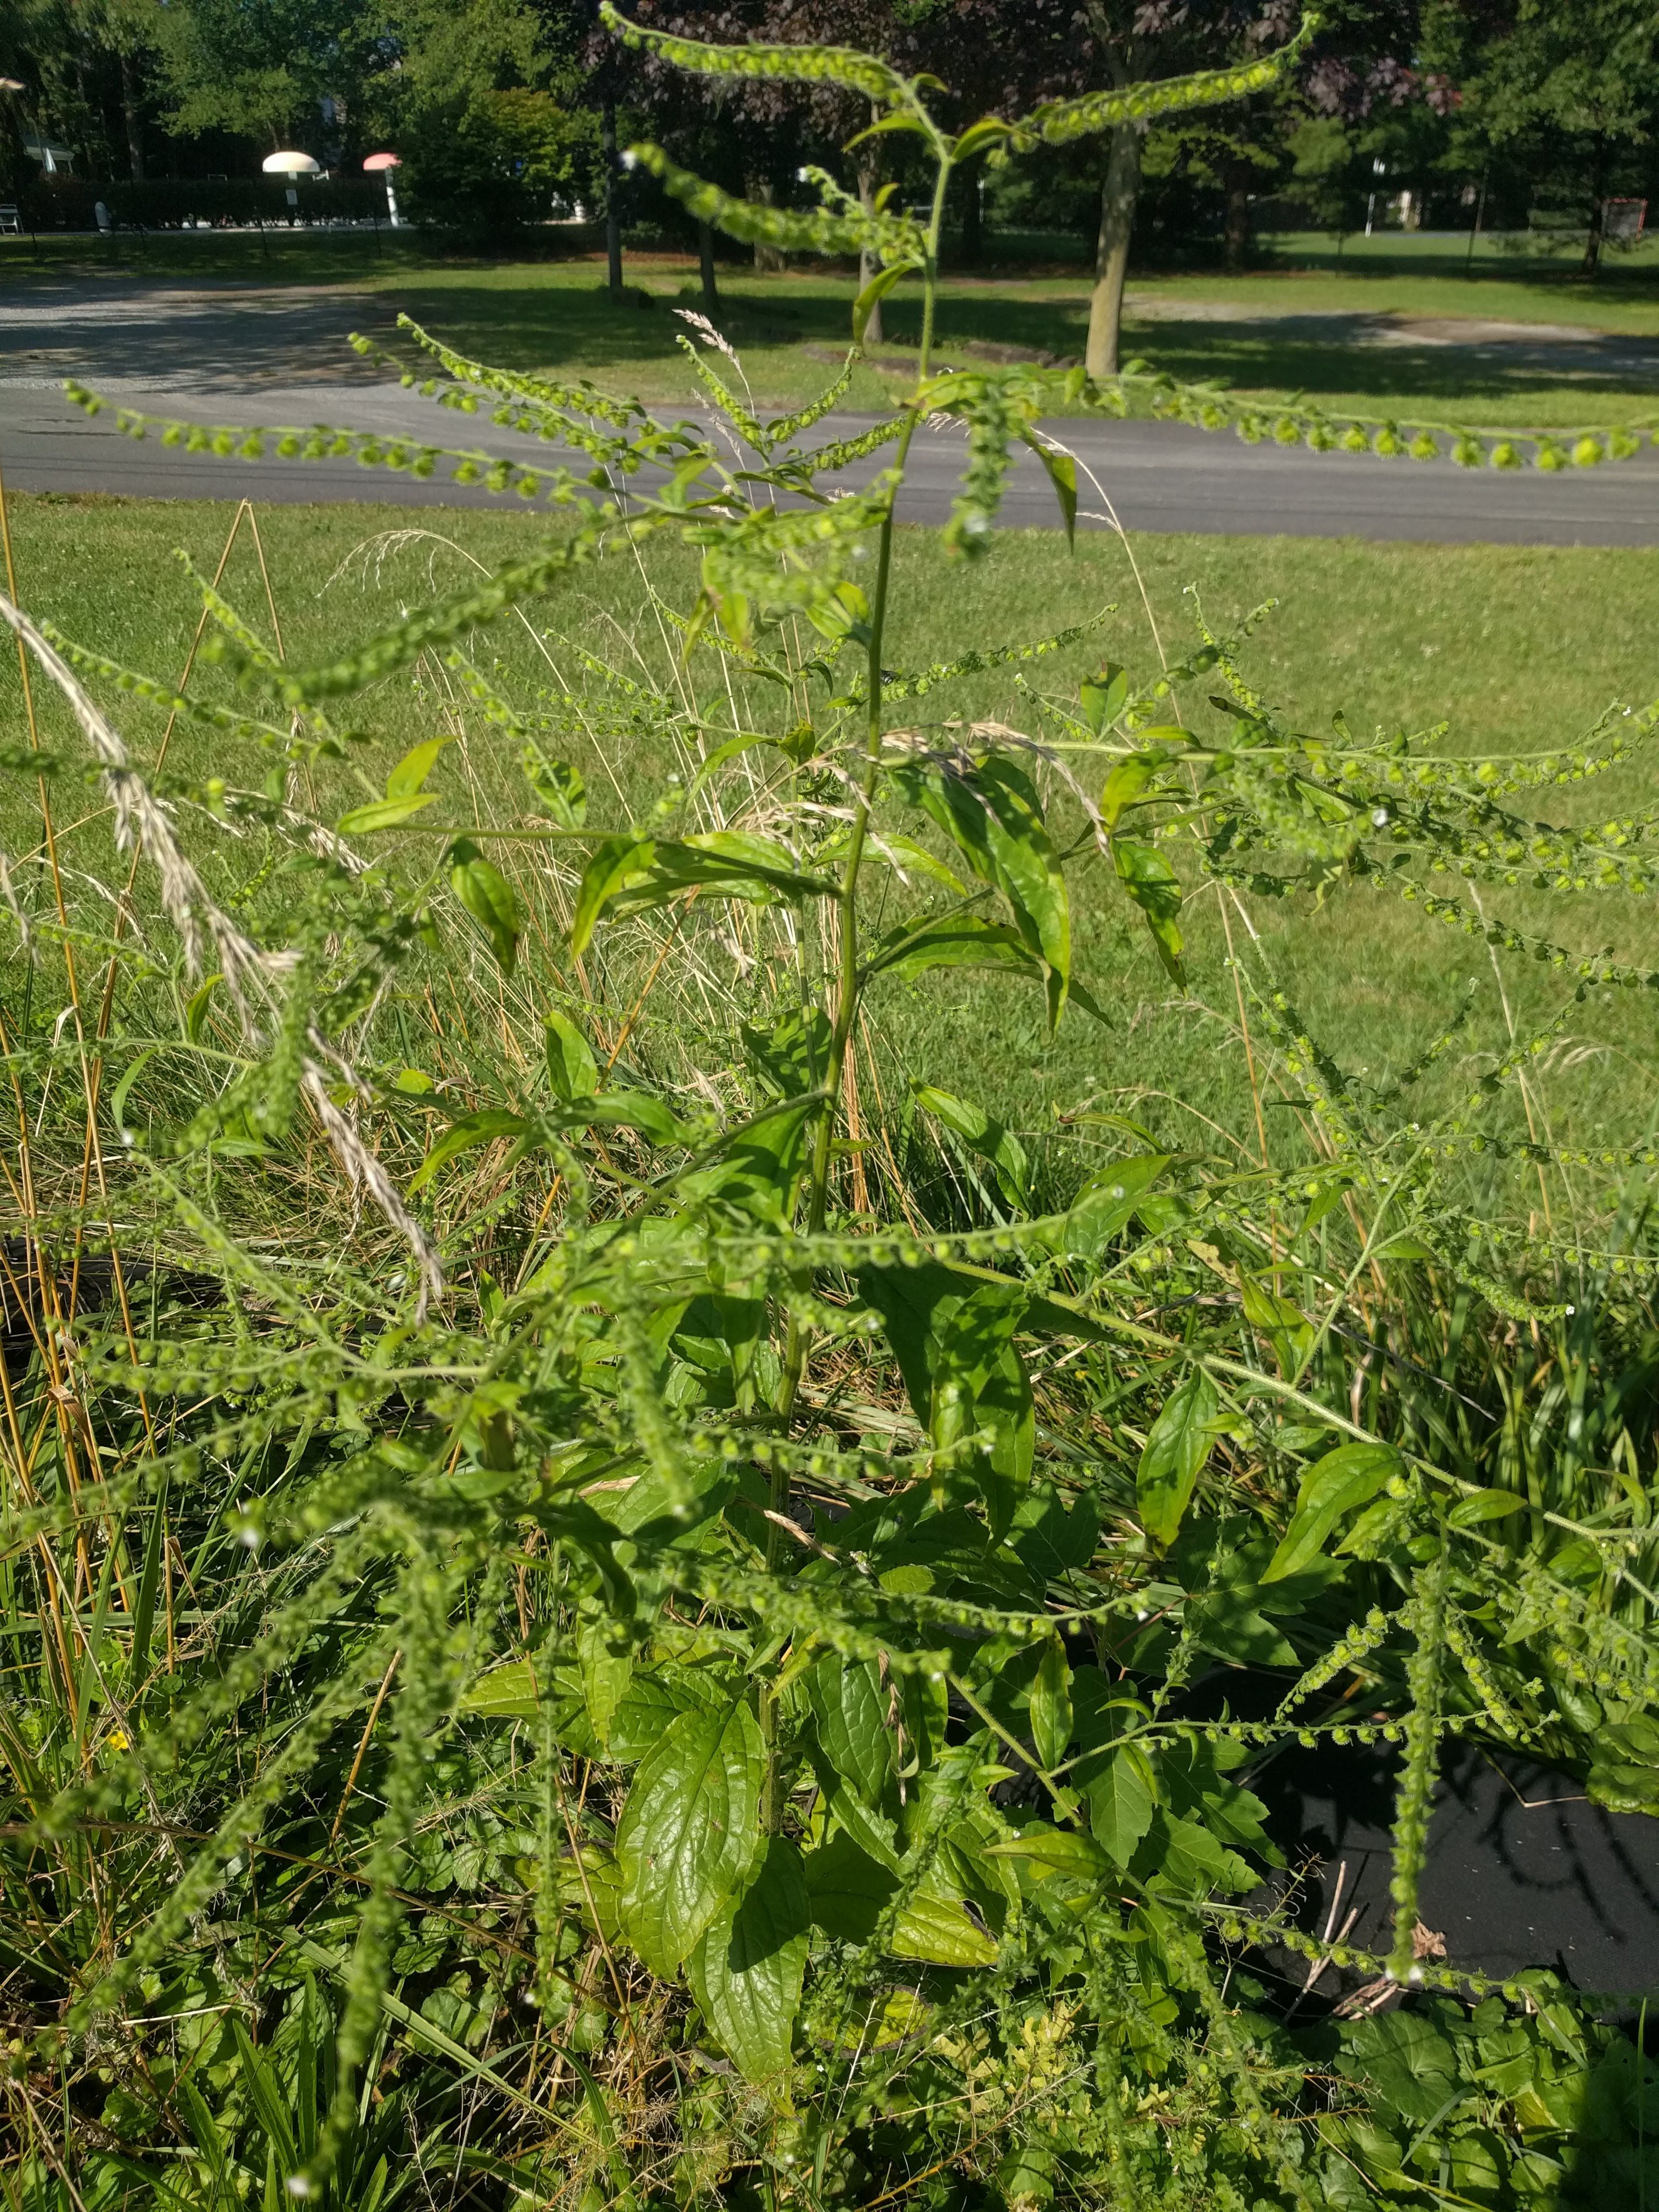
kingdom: Plantae
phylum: Tracheophyta
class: Magnoliopsida
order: Boraginales
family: Boraginaceae
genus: Hackelia
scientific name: Hackelia virginiana
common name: Beggar's-lice
